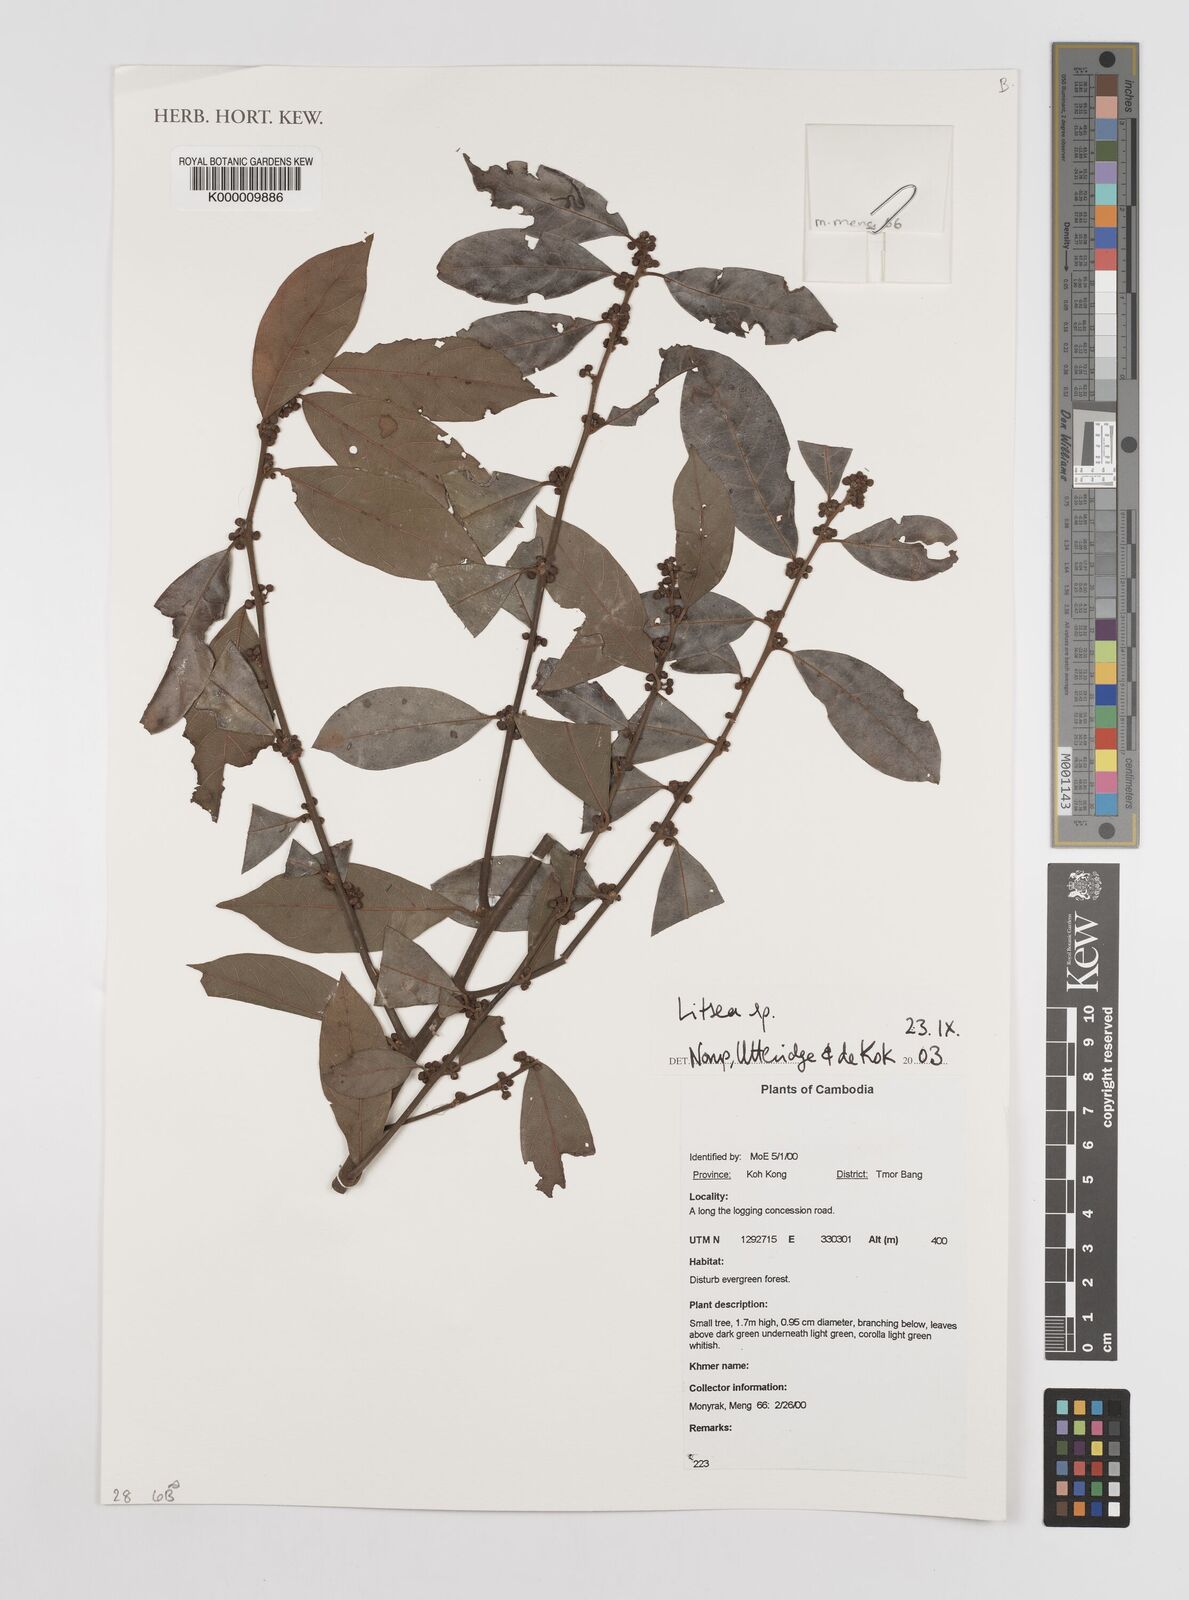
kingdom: Plantae
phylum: Tracheophyta
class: Magnoliopsida
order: Laurales
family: Lauraceae
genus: Litsea
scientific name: Litsea
